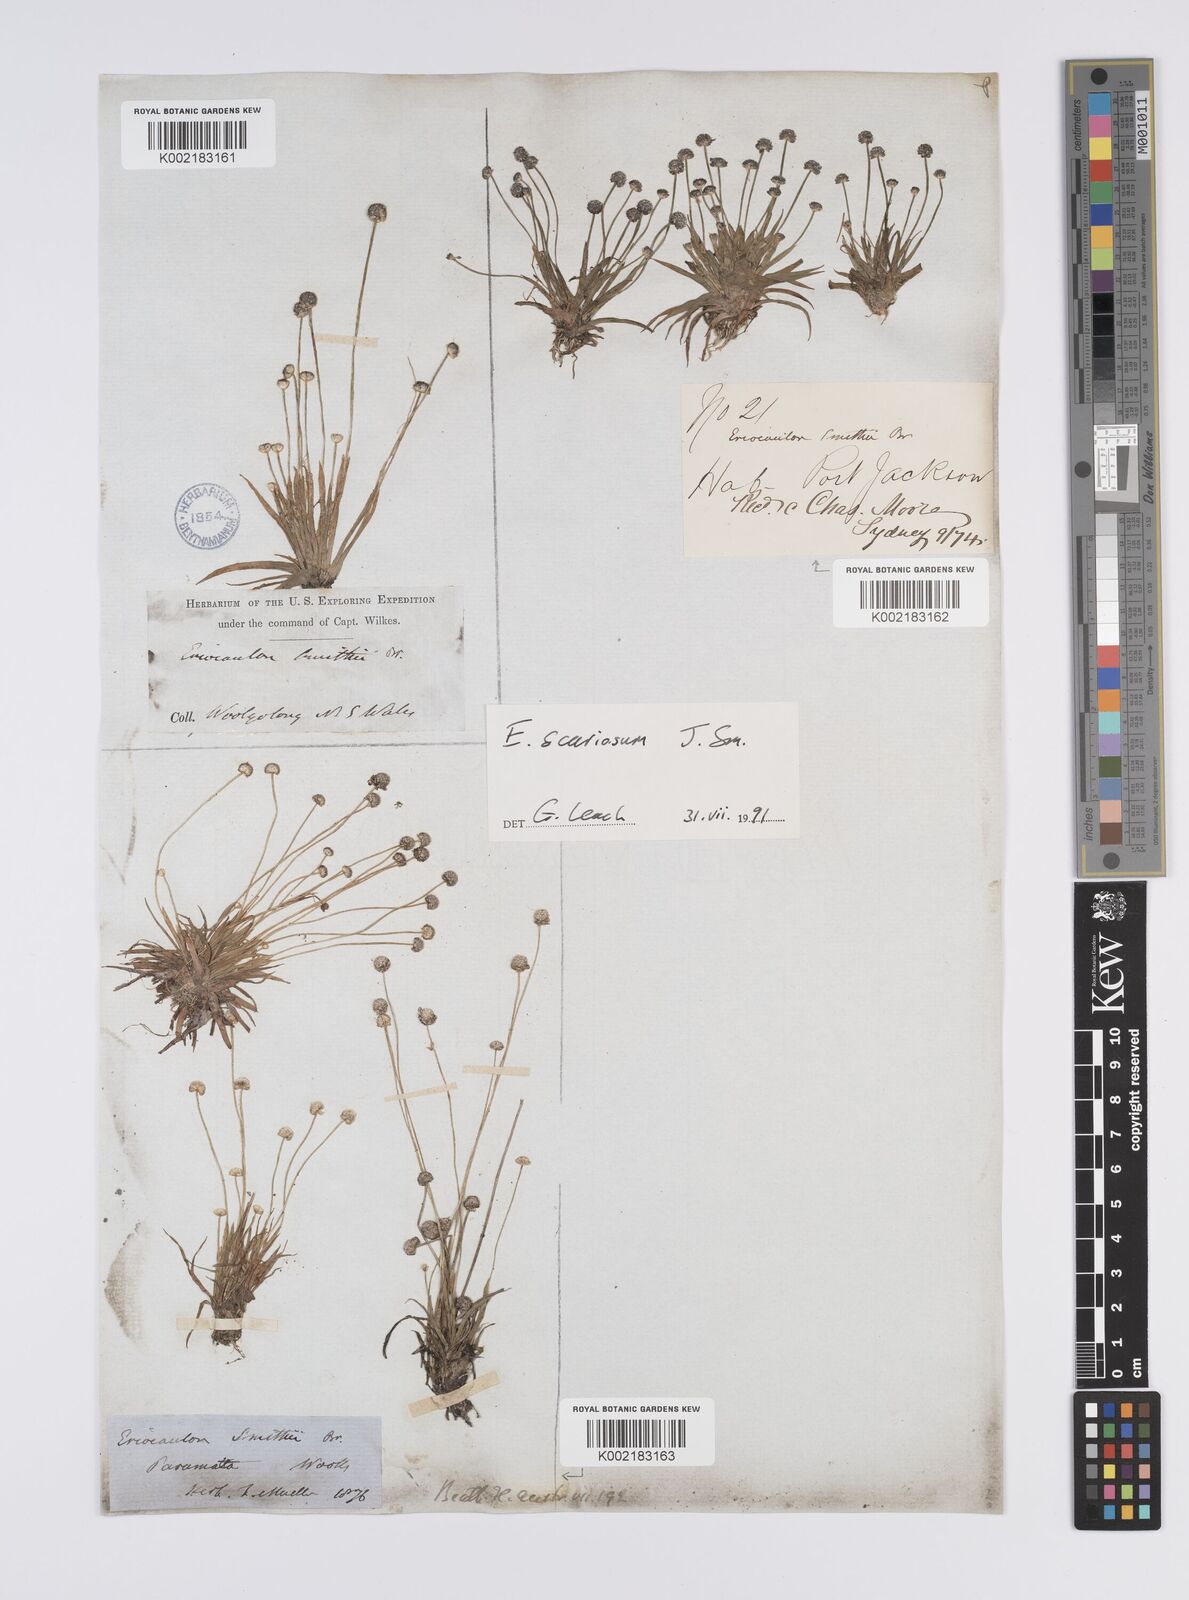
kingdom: Plantae
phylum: Tracheophyta
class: Liliopsida
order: Poales
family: Eriocaulaceae
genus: Eriocaulon
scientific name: Eriocaulon scariosum
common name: Rough pipewort
